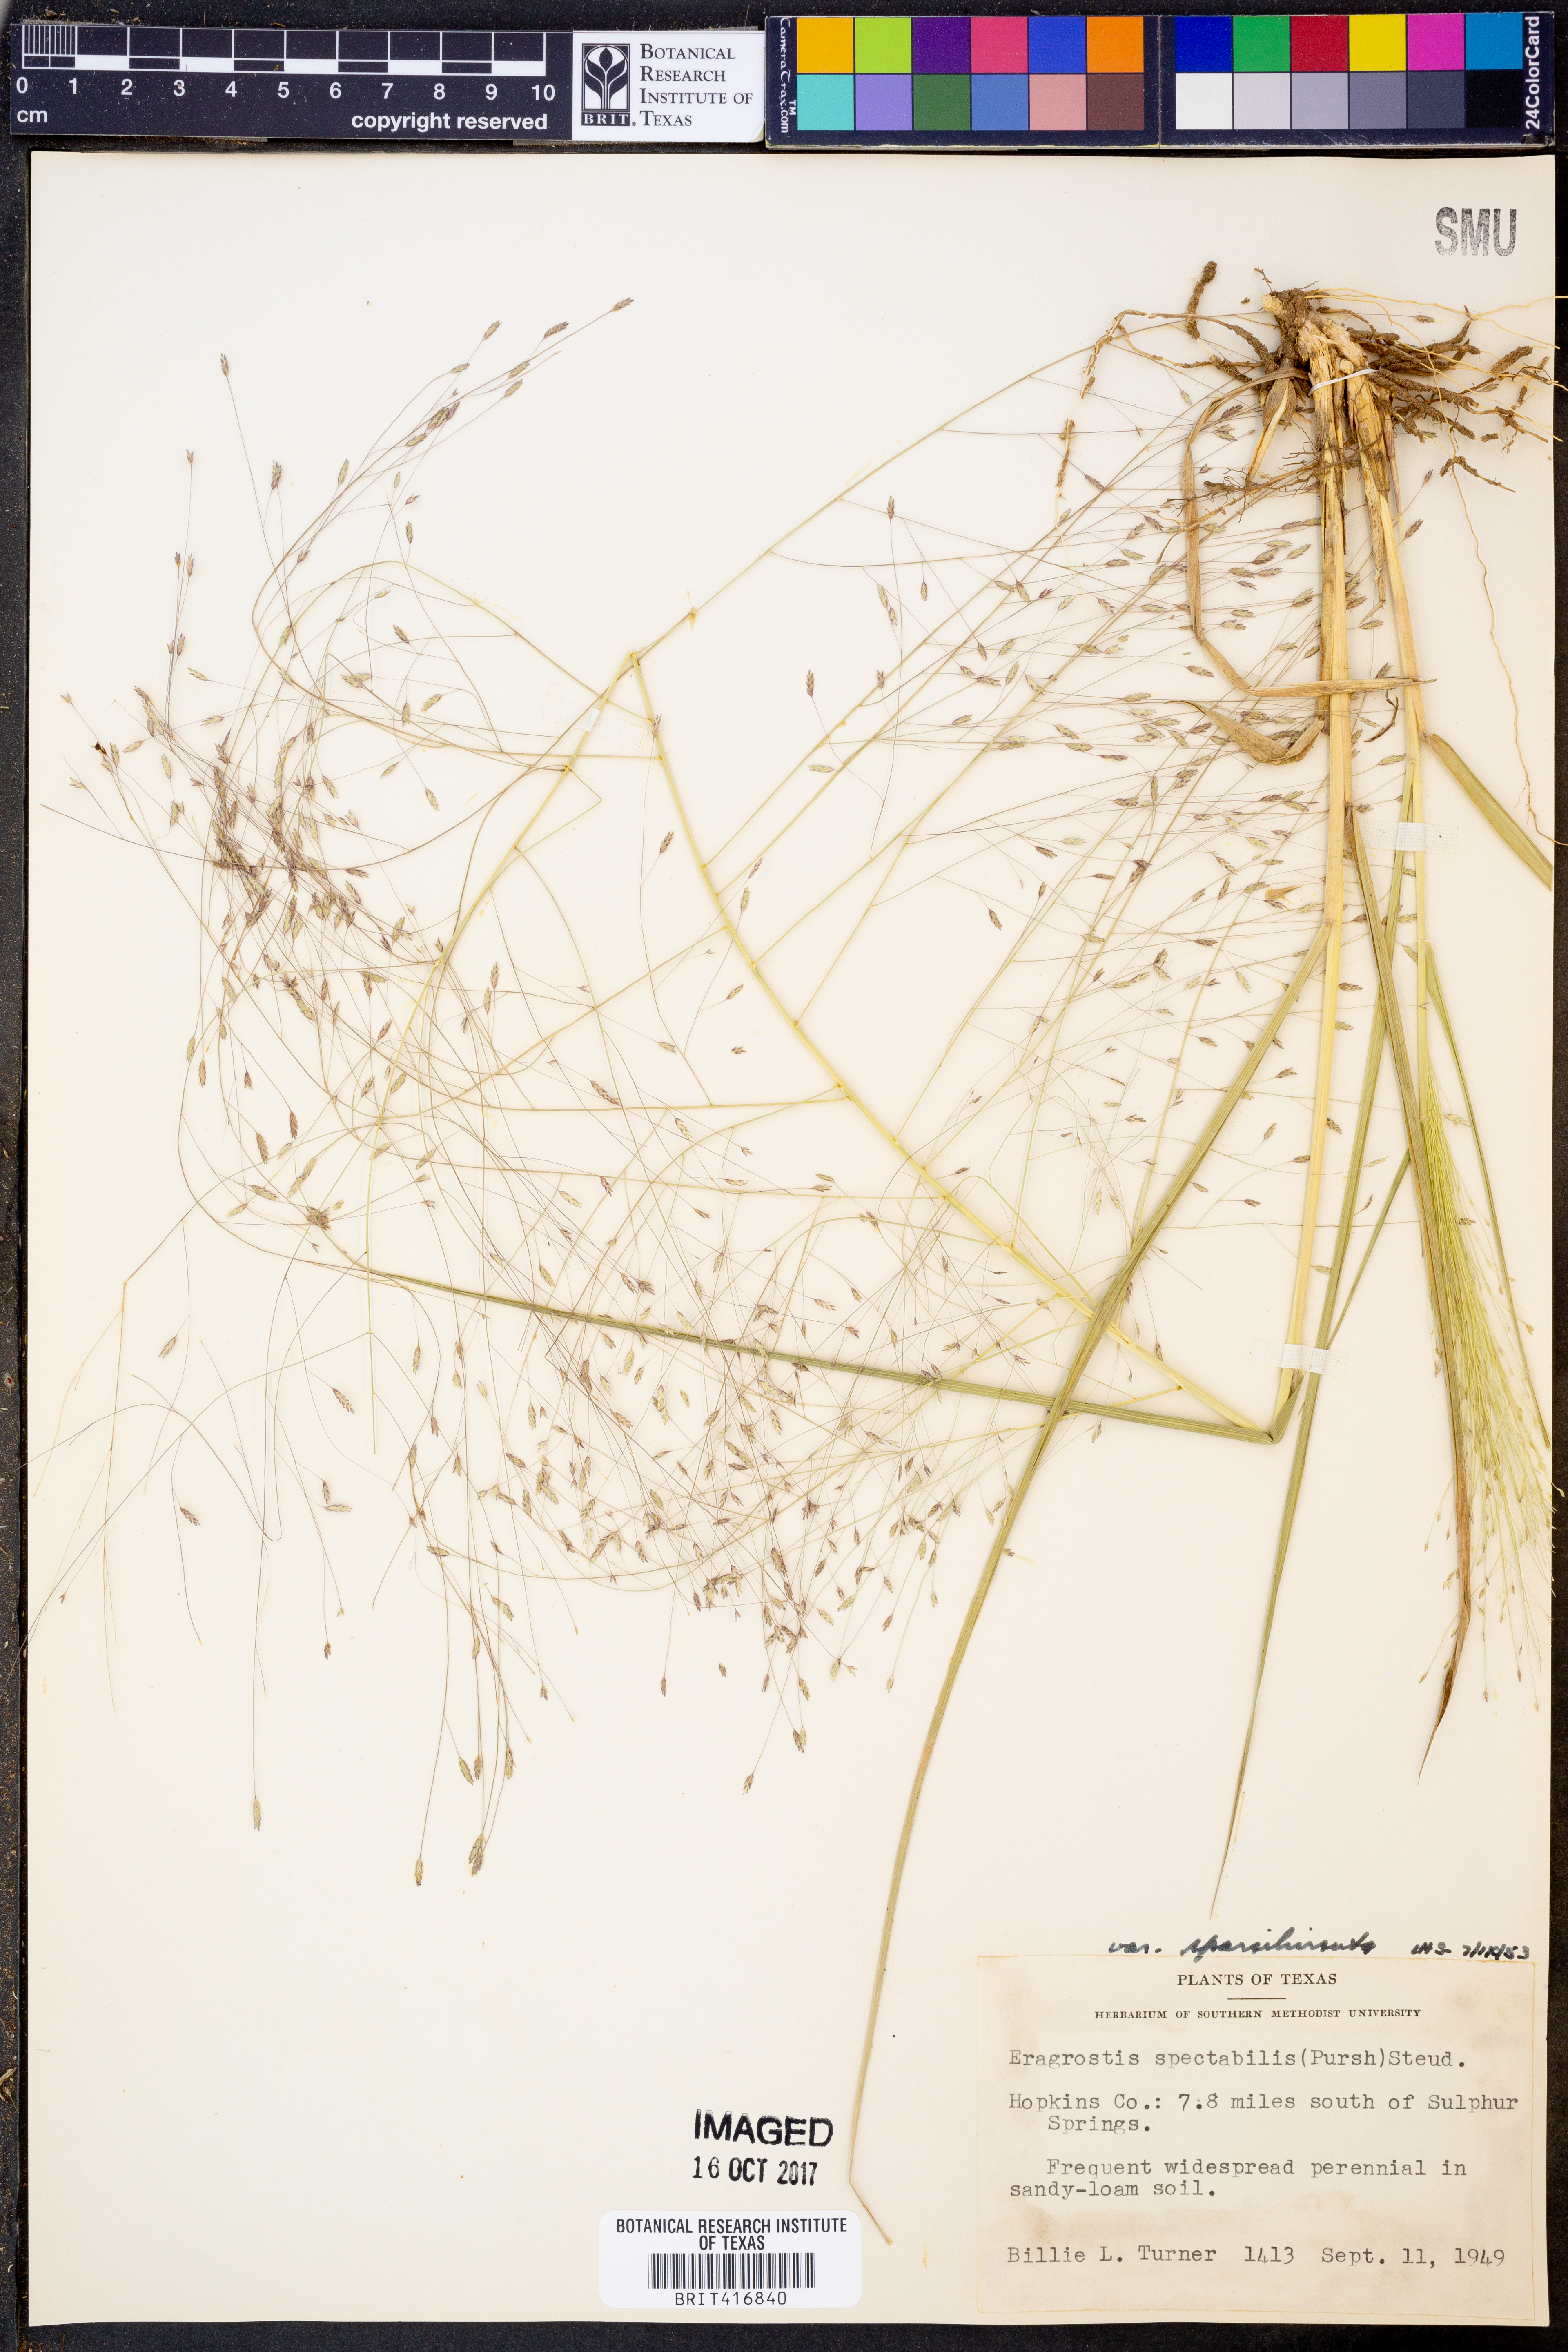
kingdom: Plantae
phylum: Tracheophyta
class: Liliopsida
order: Poales
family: Poaceae
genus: Eragrostis
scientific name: Eragrostis spectabilis
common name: Petticoat-climber
